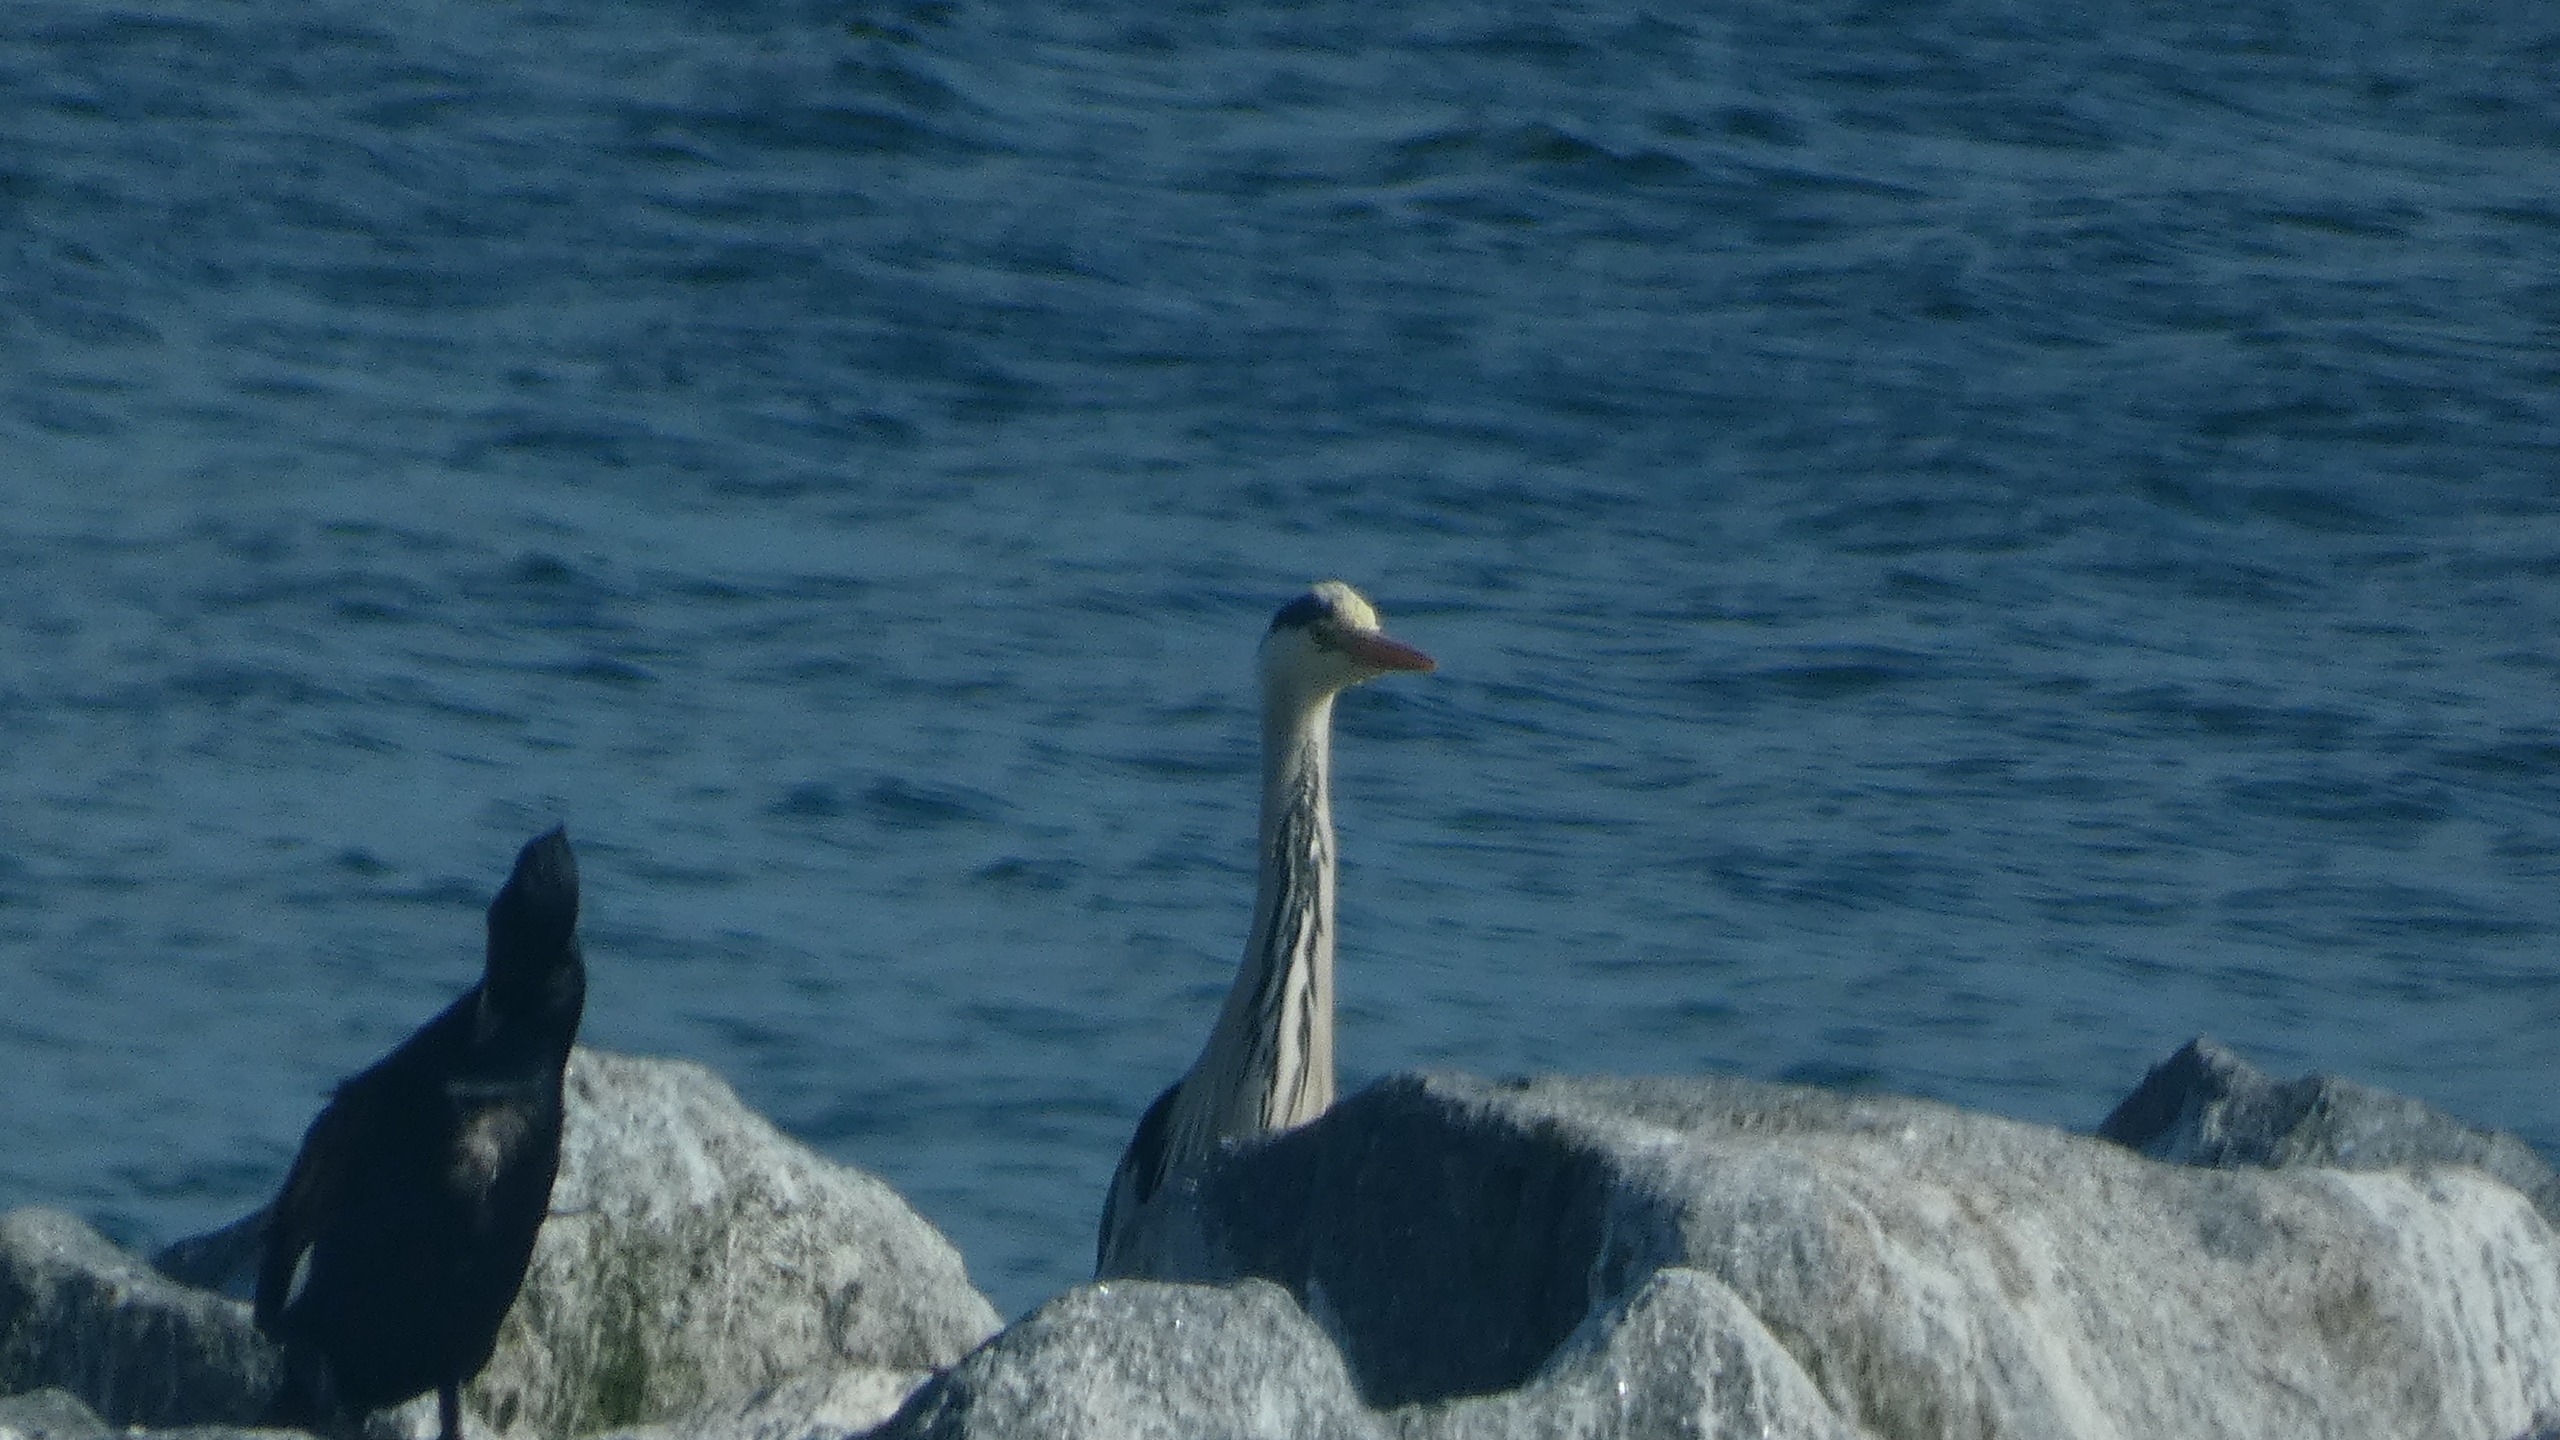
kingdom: Animalia
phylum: Chordata
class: Aves
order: Pelecaniformes
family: Ardeidae
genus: Ardea
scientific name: Ardea cinerea
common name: Fiskehejre
